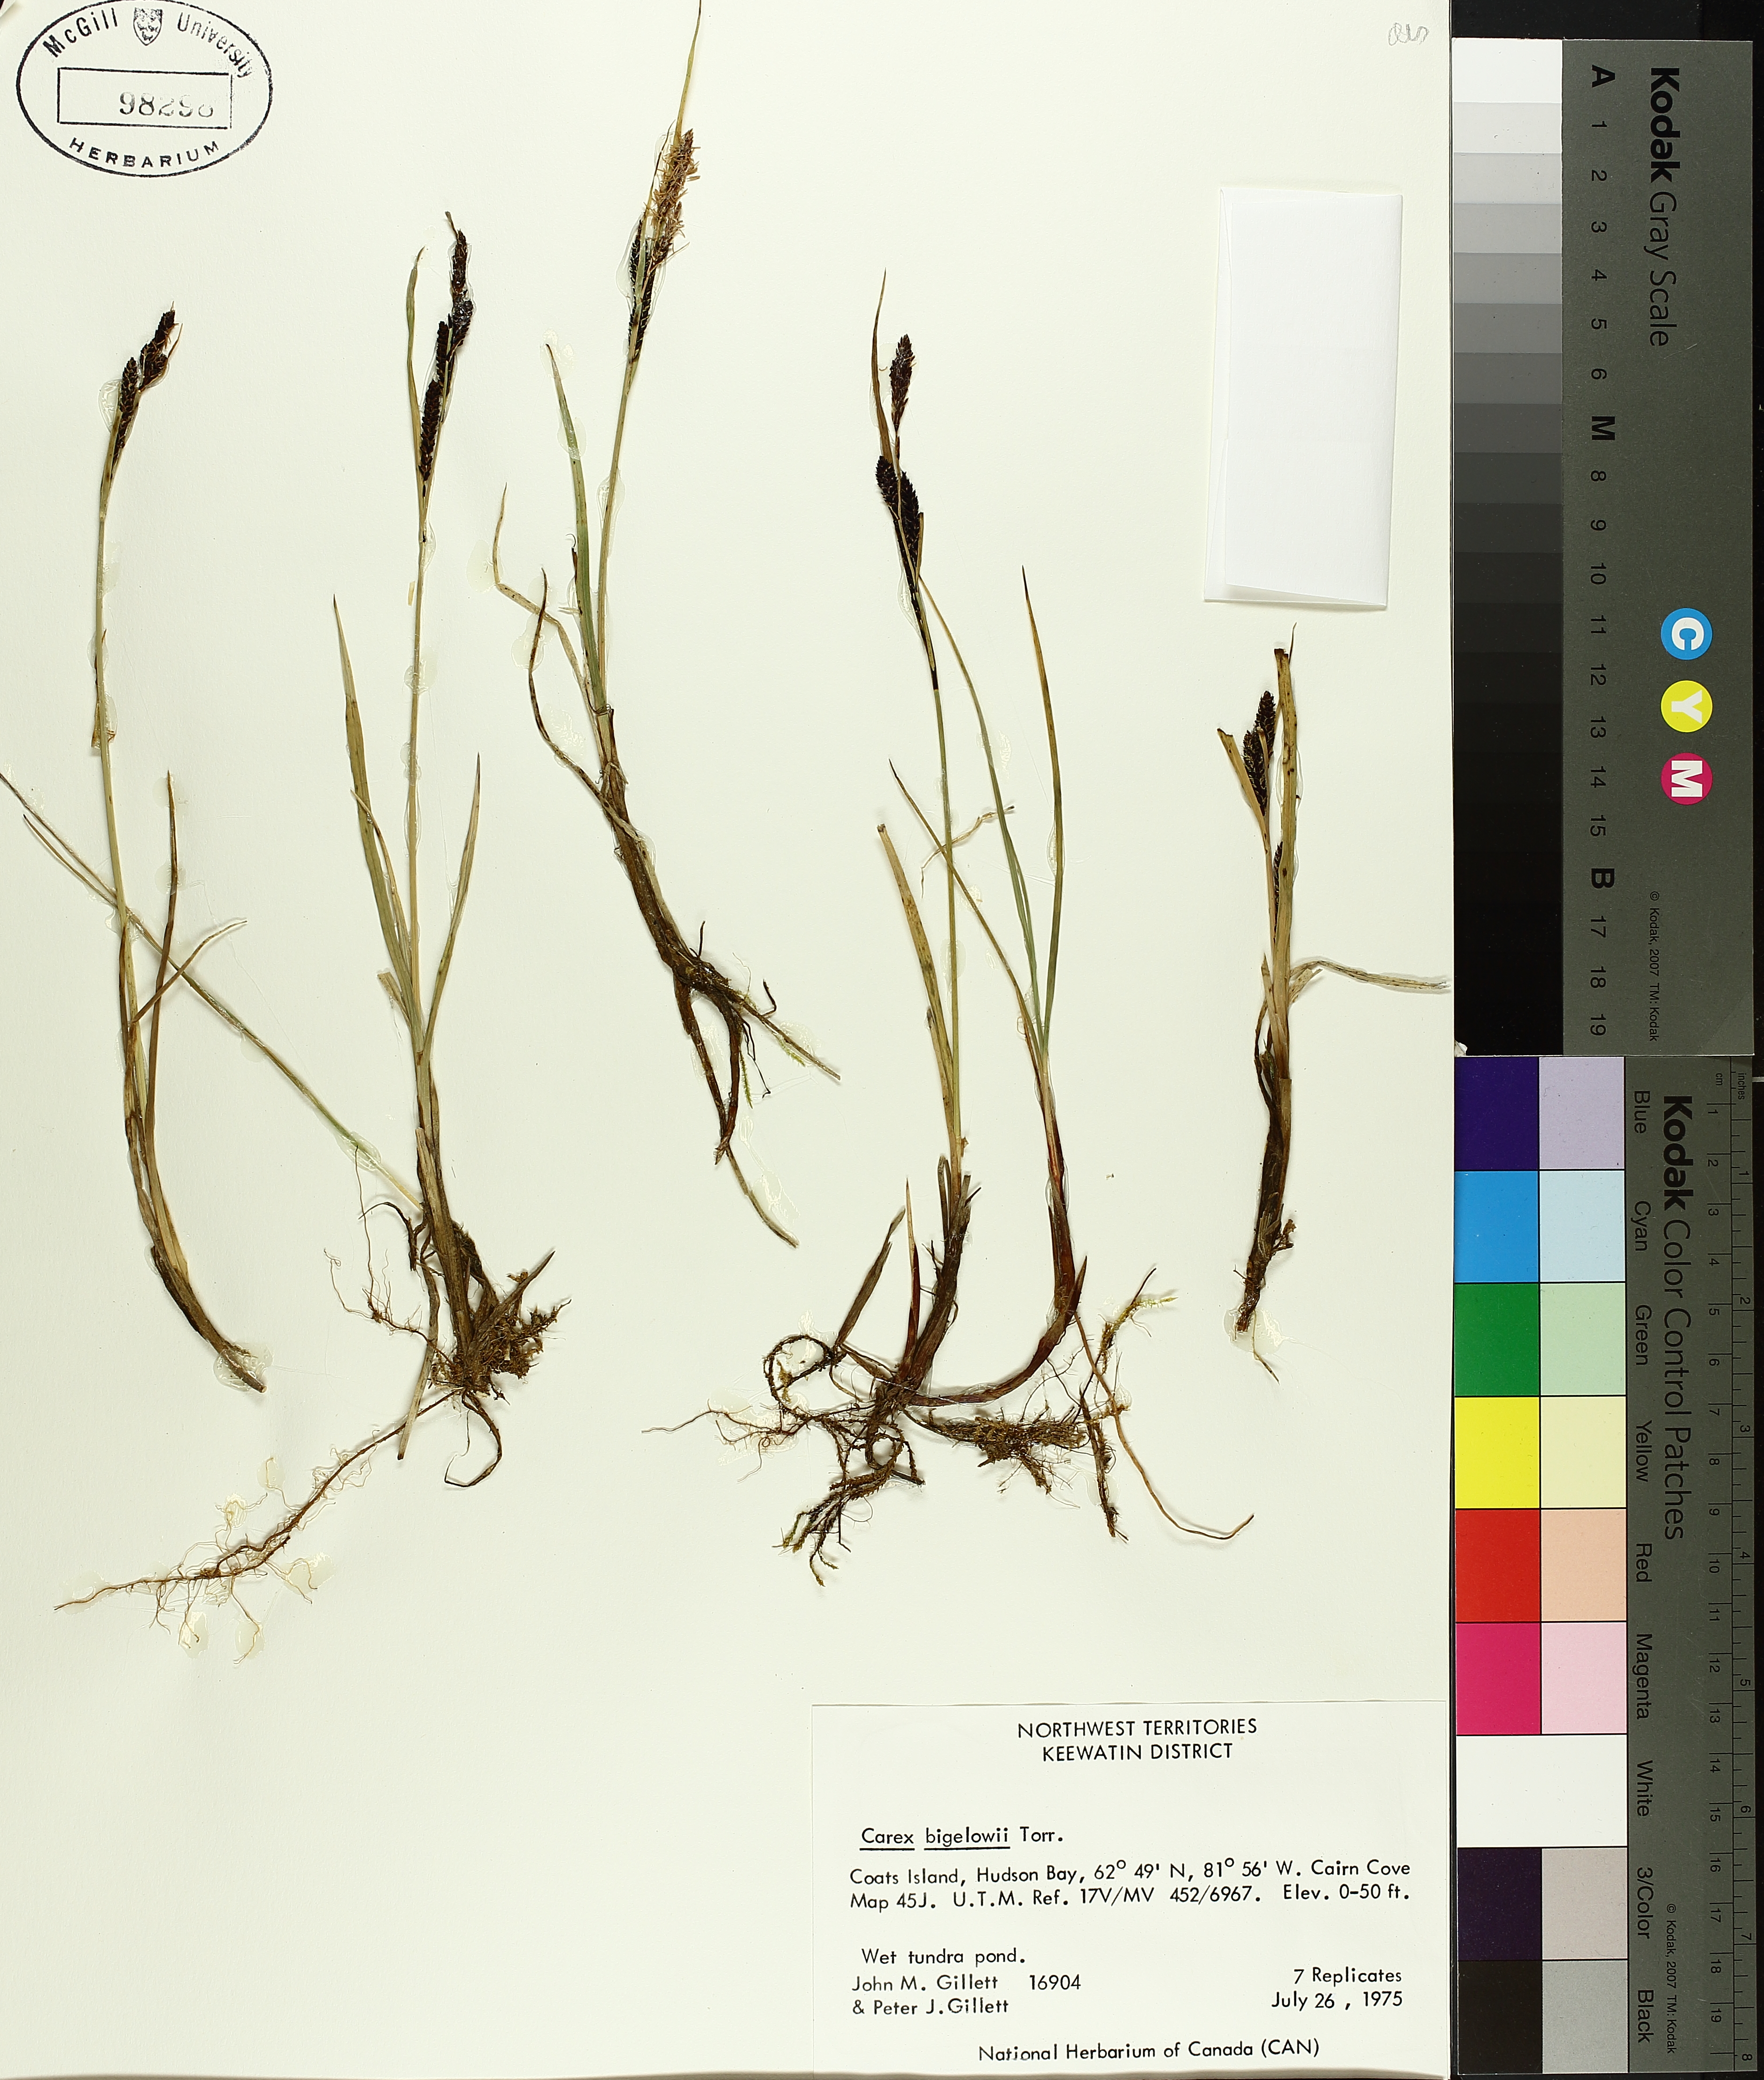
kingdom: Plantae
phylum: Tracheophyta
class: Liliopsida
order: Poales
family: Cyperaceae
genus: Carex
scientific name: Carex bigelowii
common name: Stiff sedge
